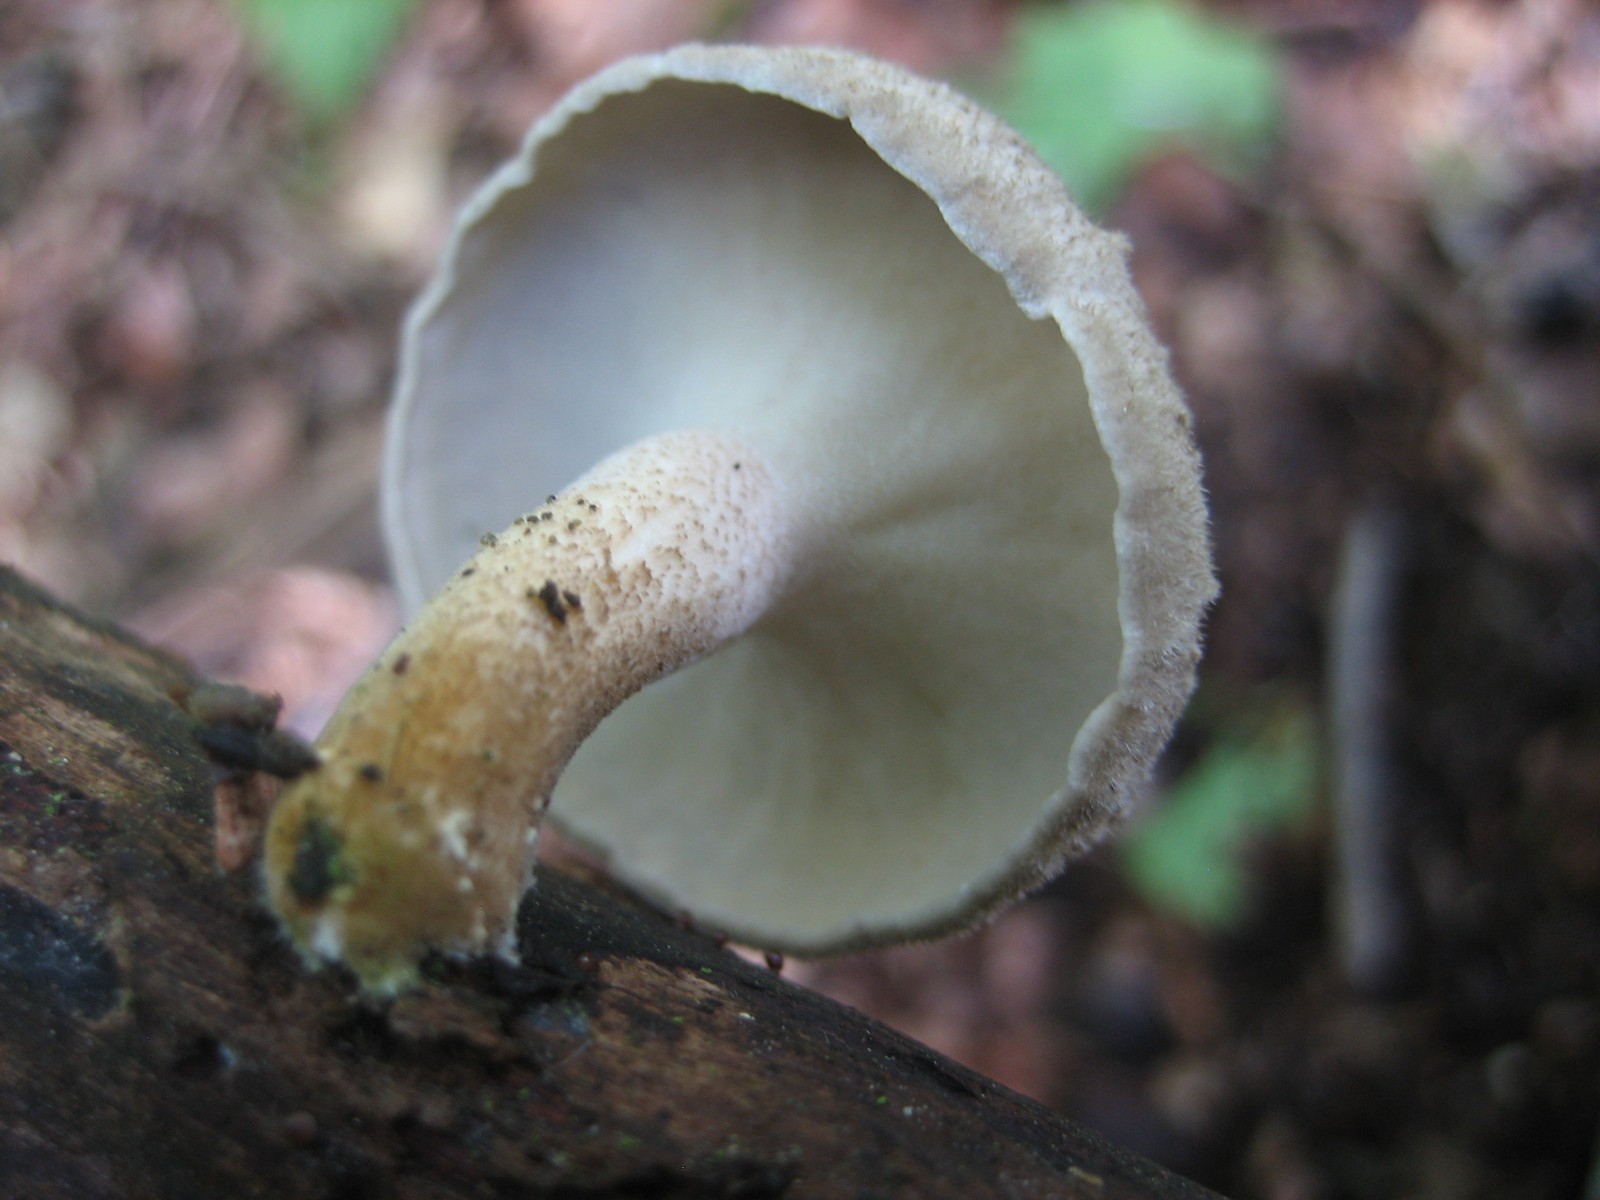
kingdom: Fungi
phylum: Basidiomycota
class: Agaricomycetes
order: Polyporales
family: Polyporaceae
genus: Lentinus
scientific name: Lentinus substrictus
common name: forårs-stilkporesvamp
